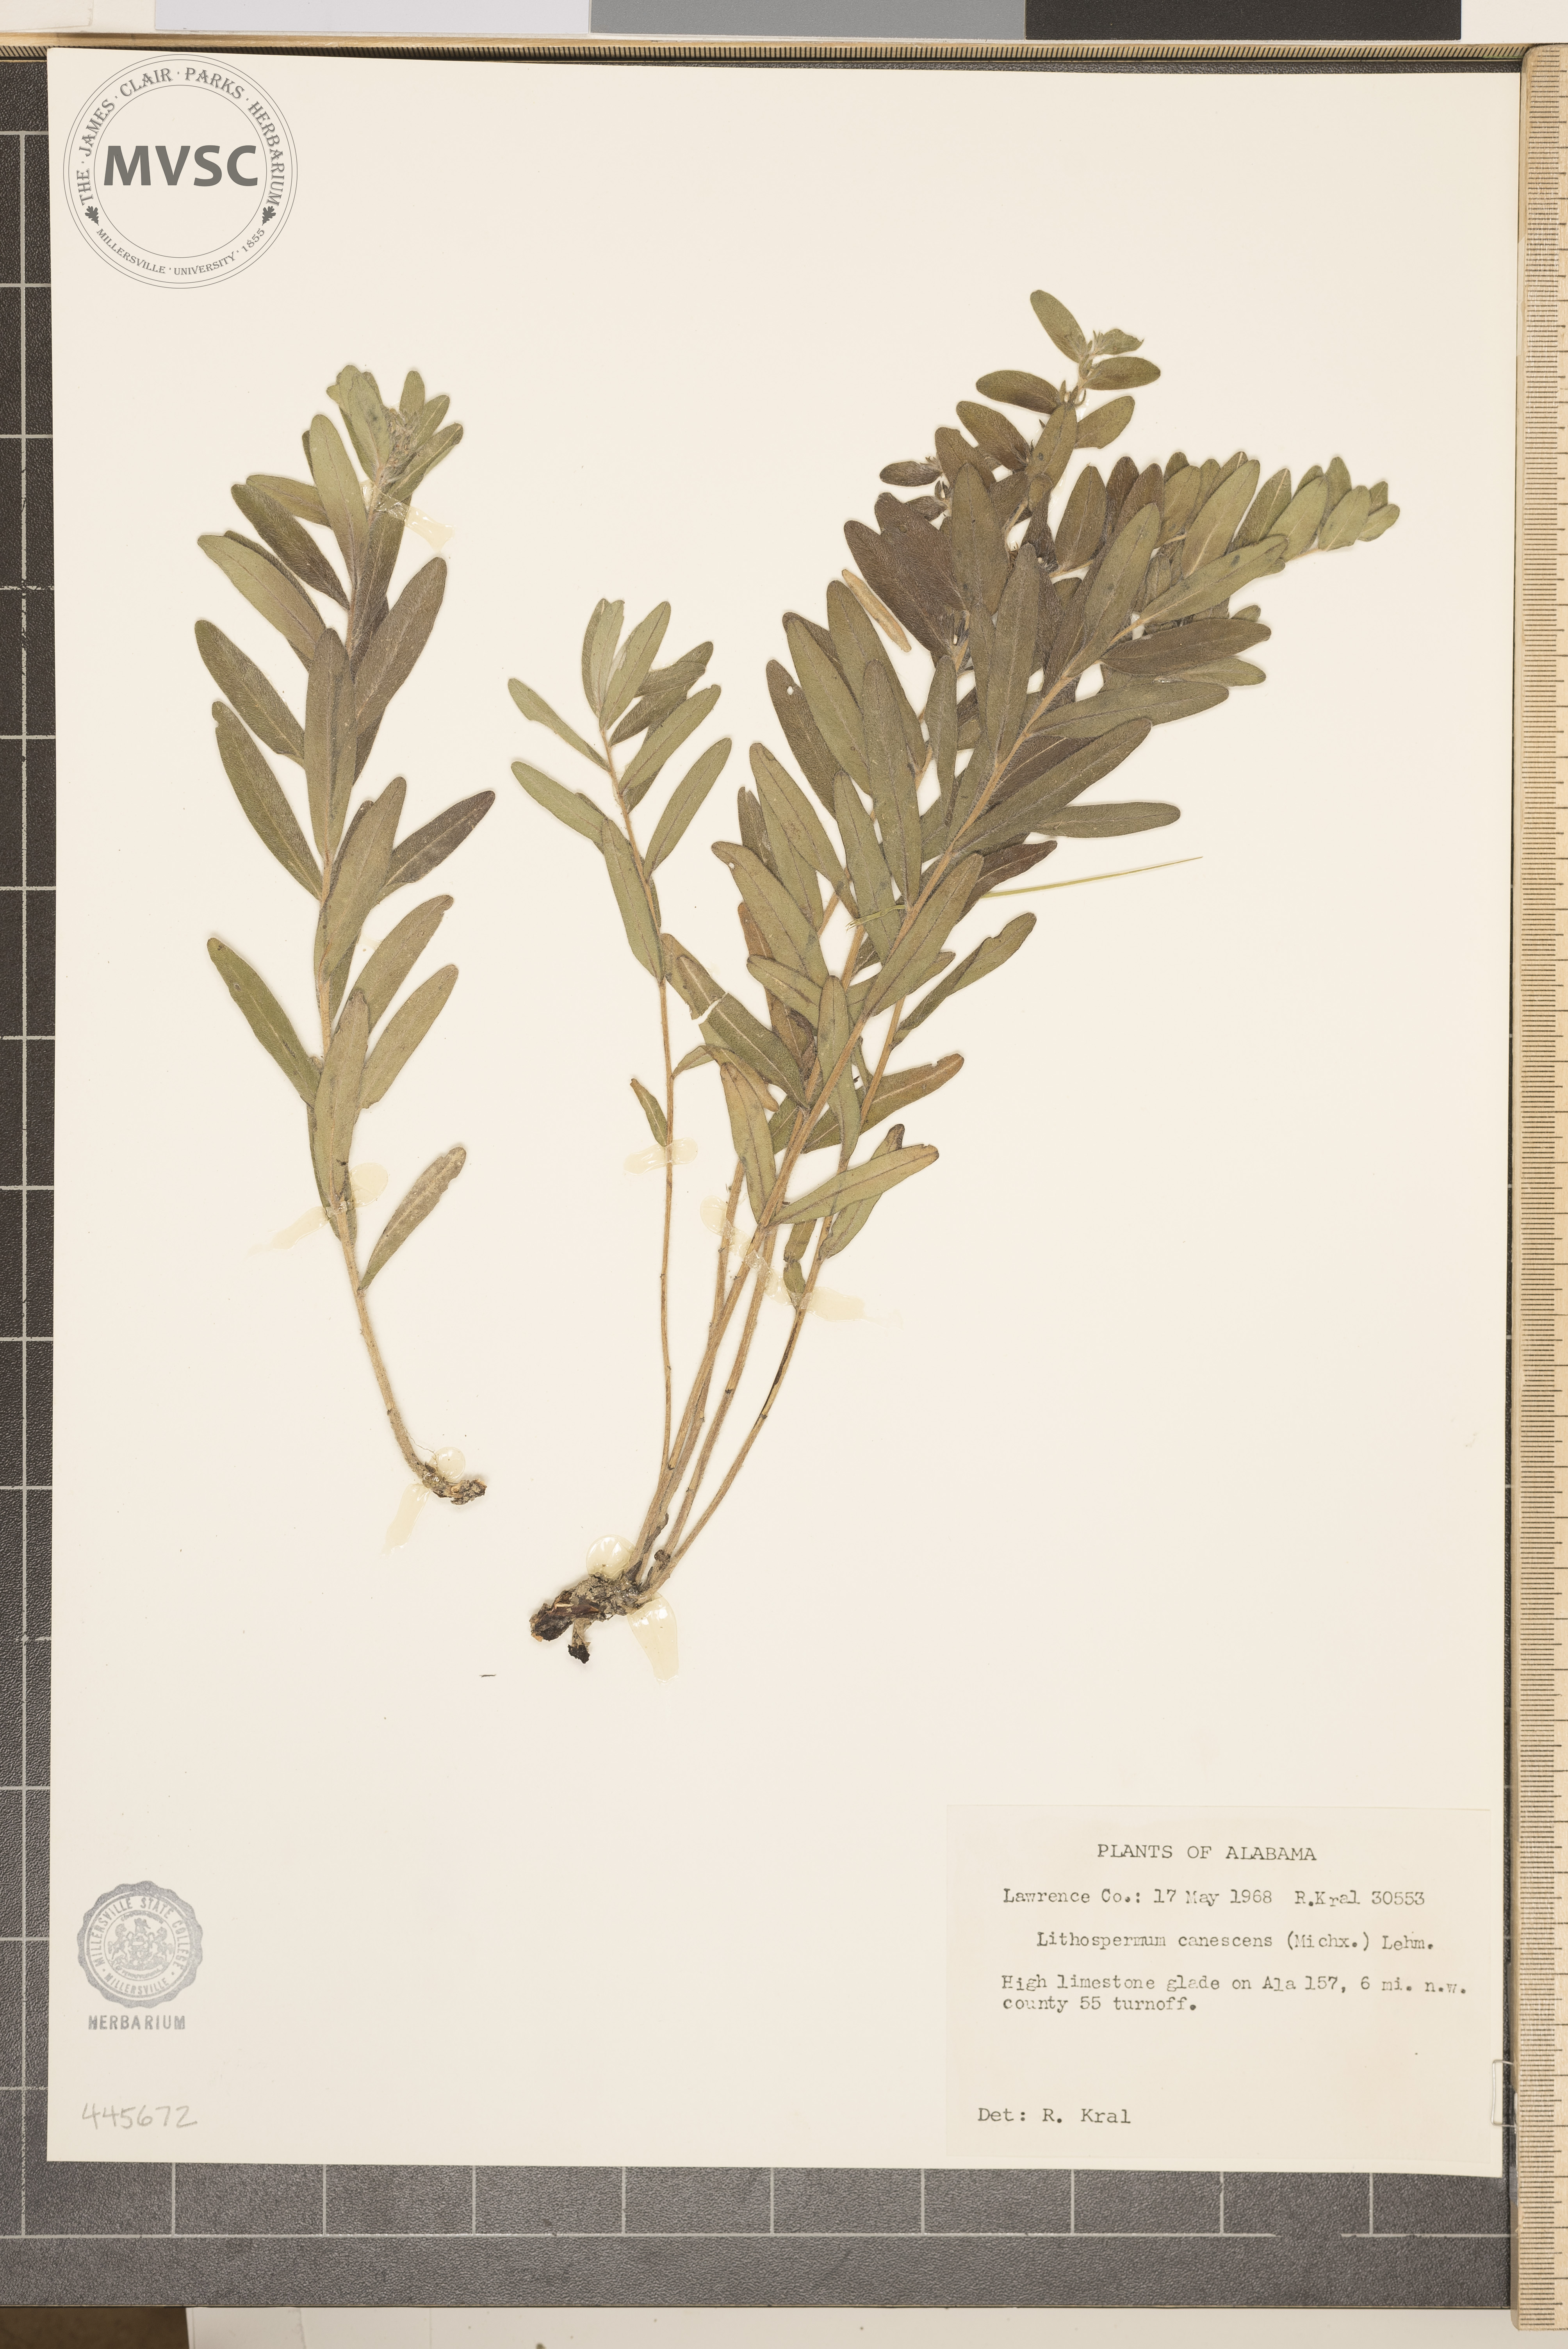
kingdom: Plantae
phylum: Tracheophyta
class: Magnoliopsida
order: Boraginales
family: Boraginaceae
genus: Lithospermum
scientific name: Lithospermum canescens
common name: Hoary puccoon
